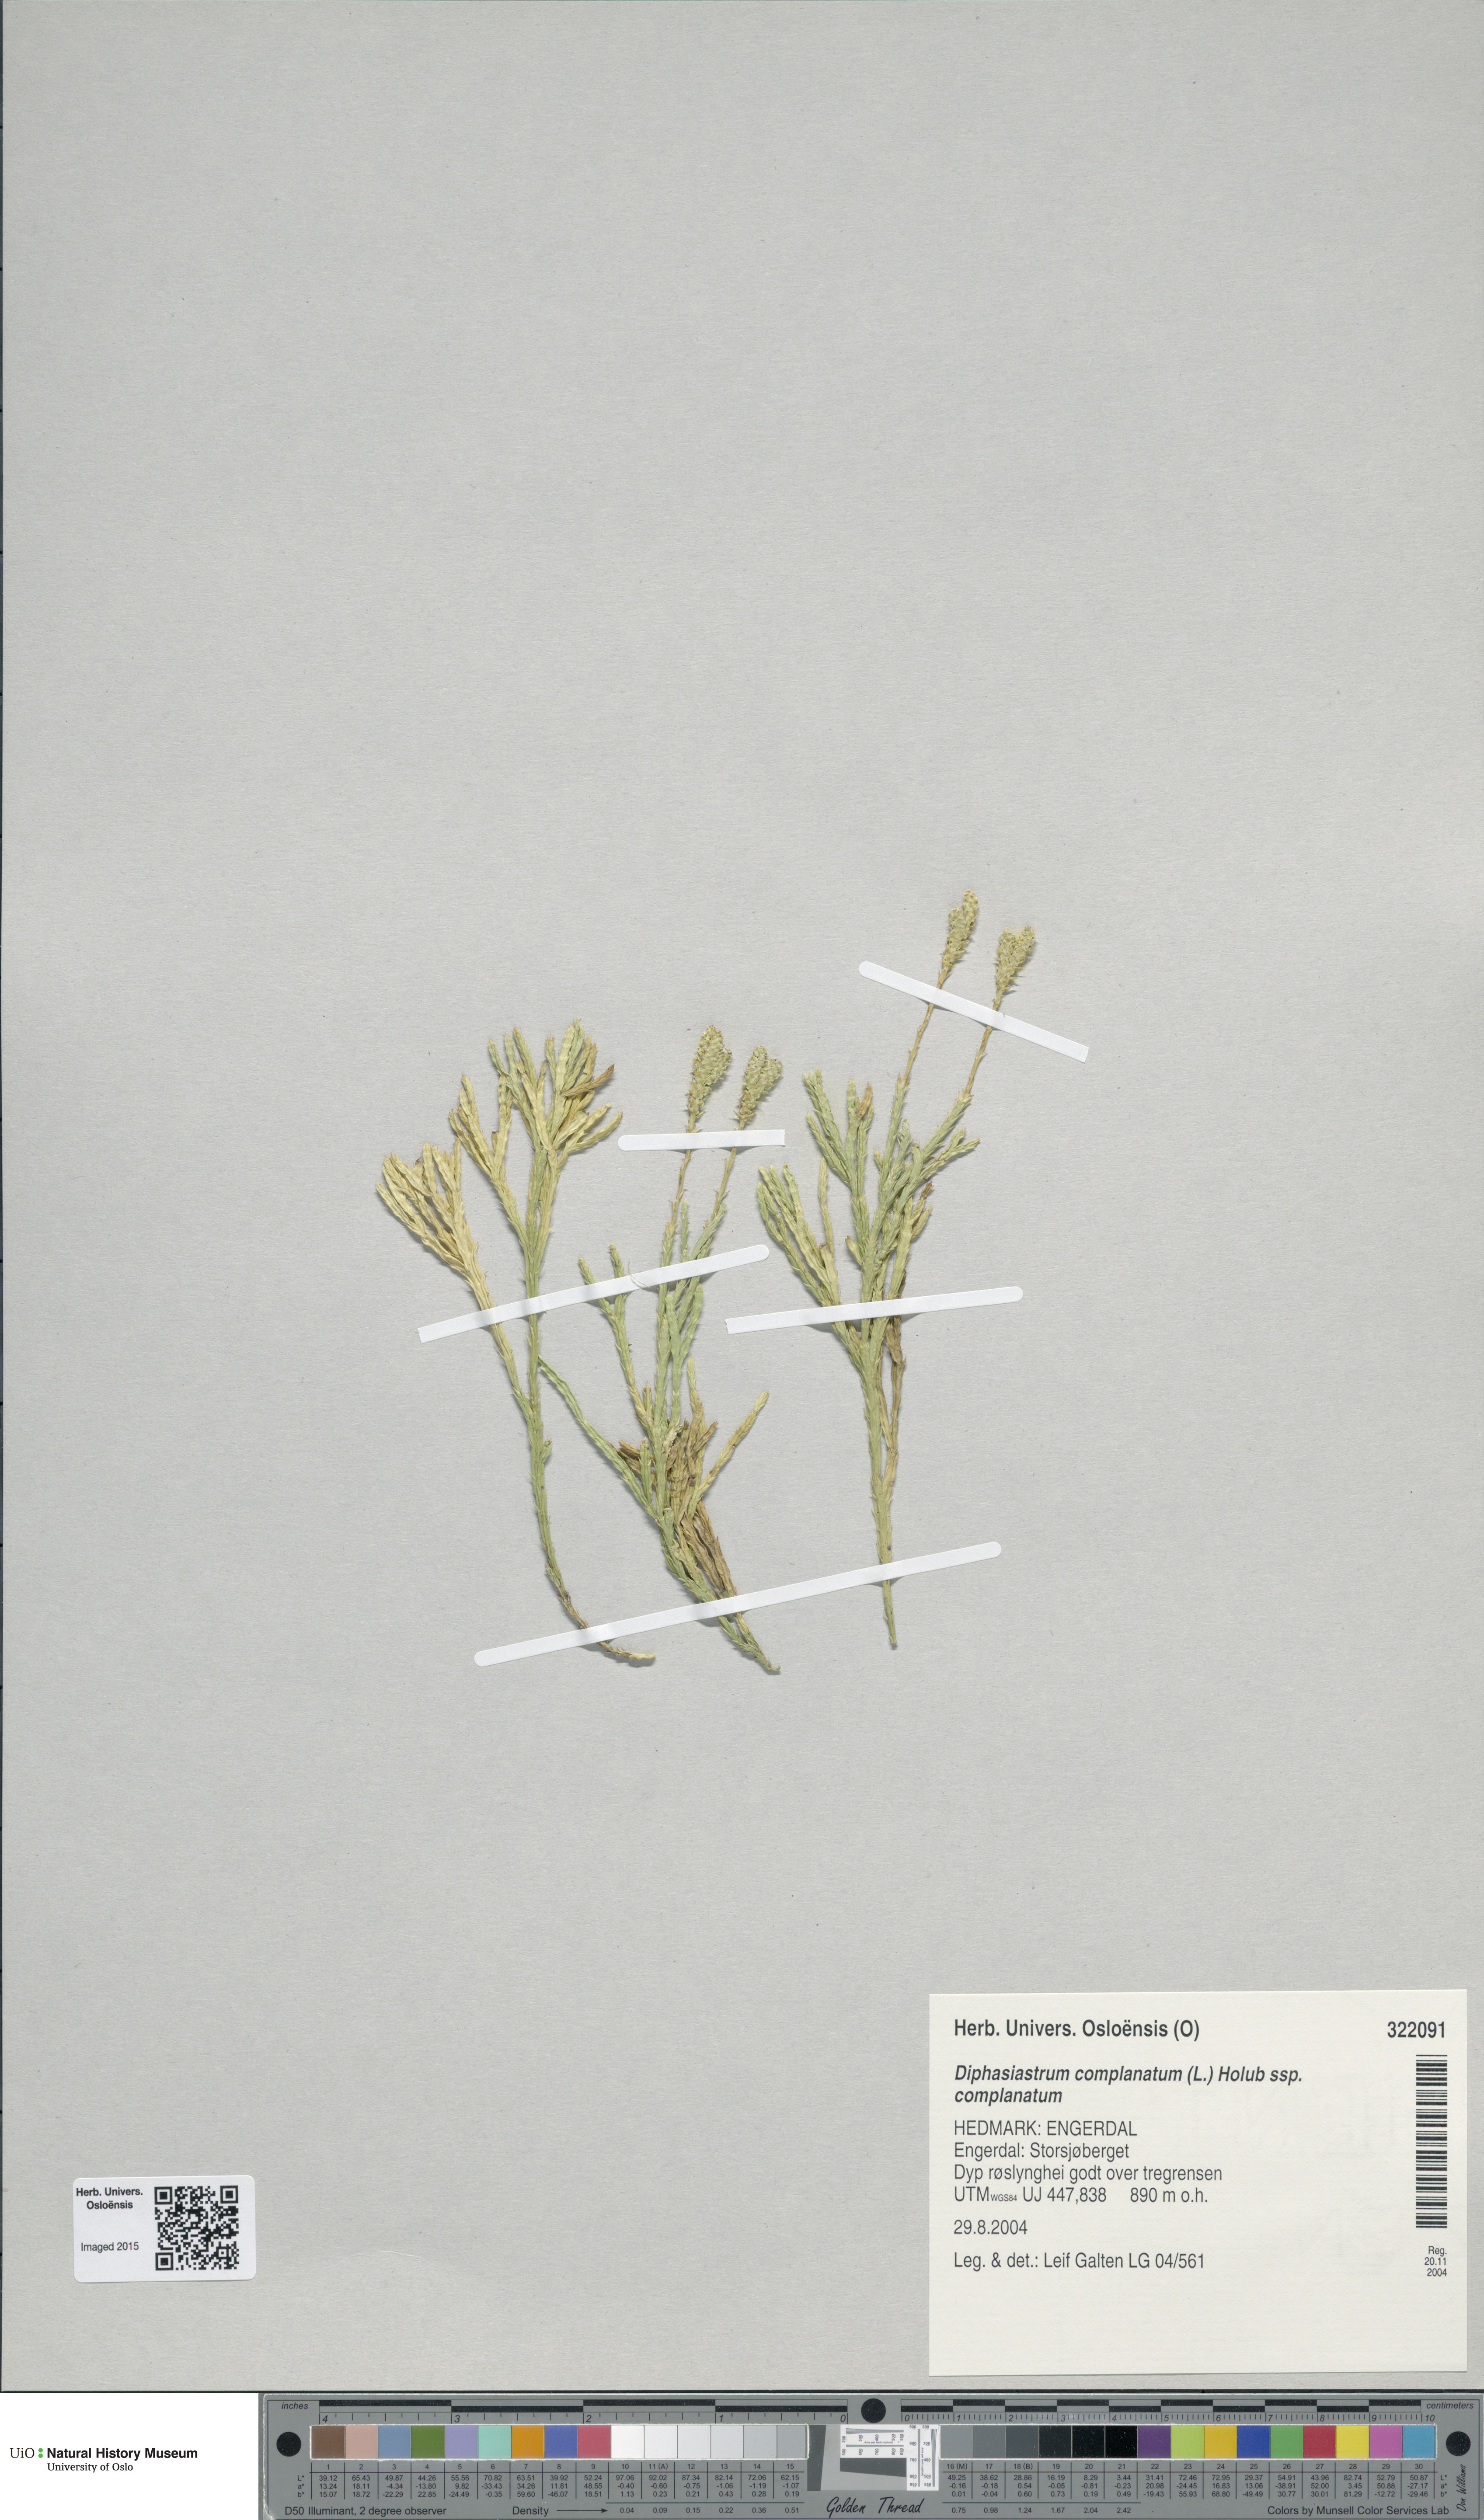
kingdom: Plantae
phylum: Tracheophyta
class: Lycopodiopsida
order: Lycopodiales
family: Lycopodiaceae
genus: Diphasiastrum
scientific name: Diphasiastrum complanatum
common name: Northern running-pine
